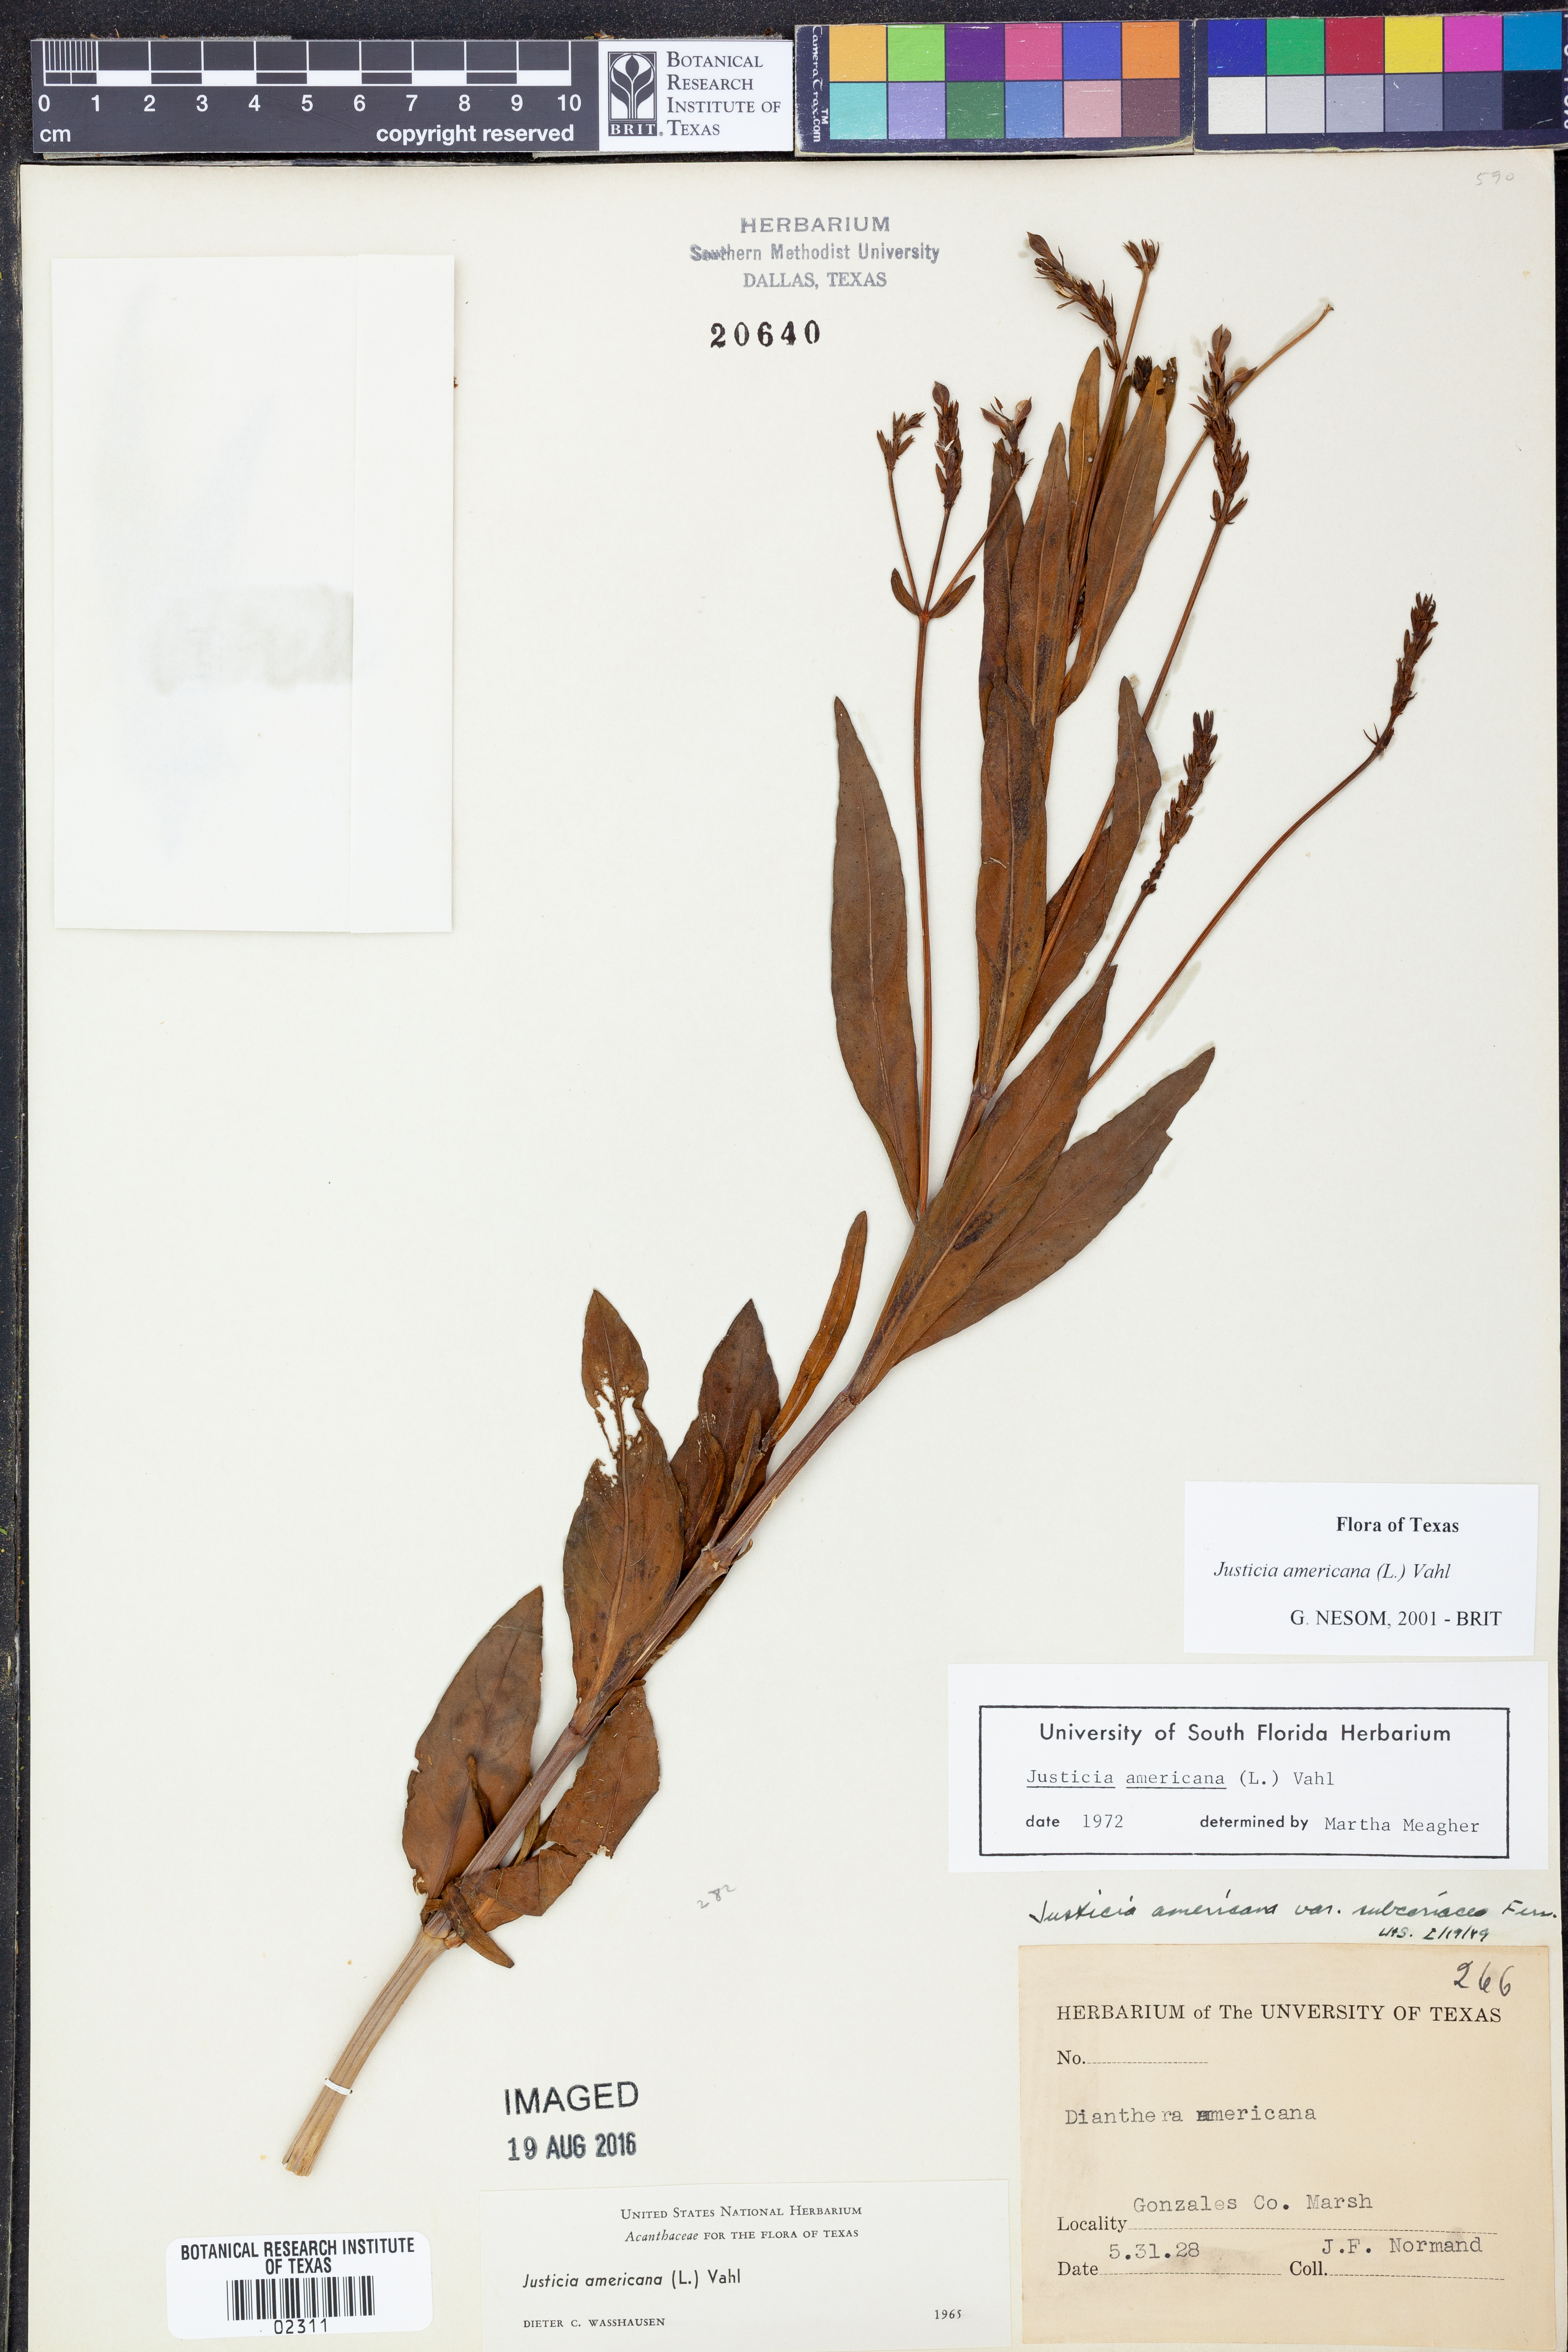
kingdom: Plantae
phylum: Tracheophyta
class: Magnoliopsida
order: Lamiales
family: Acanthaceae
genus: Dianthera
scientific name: Dianthera americana
